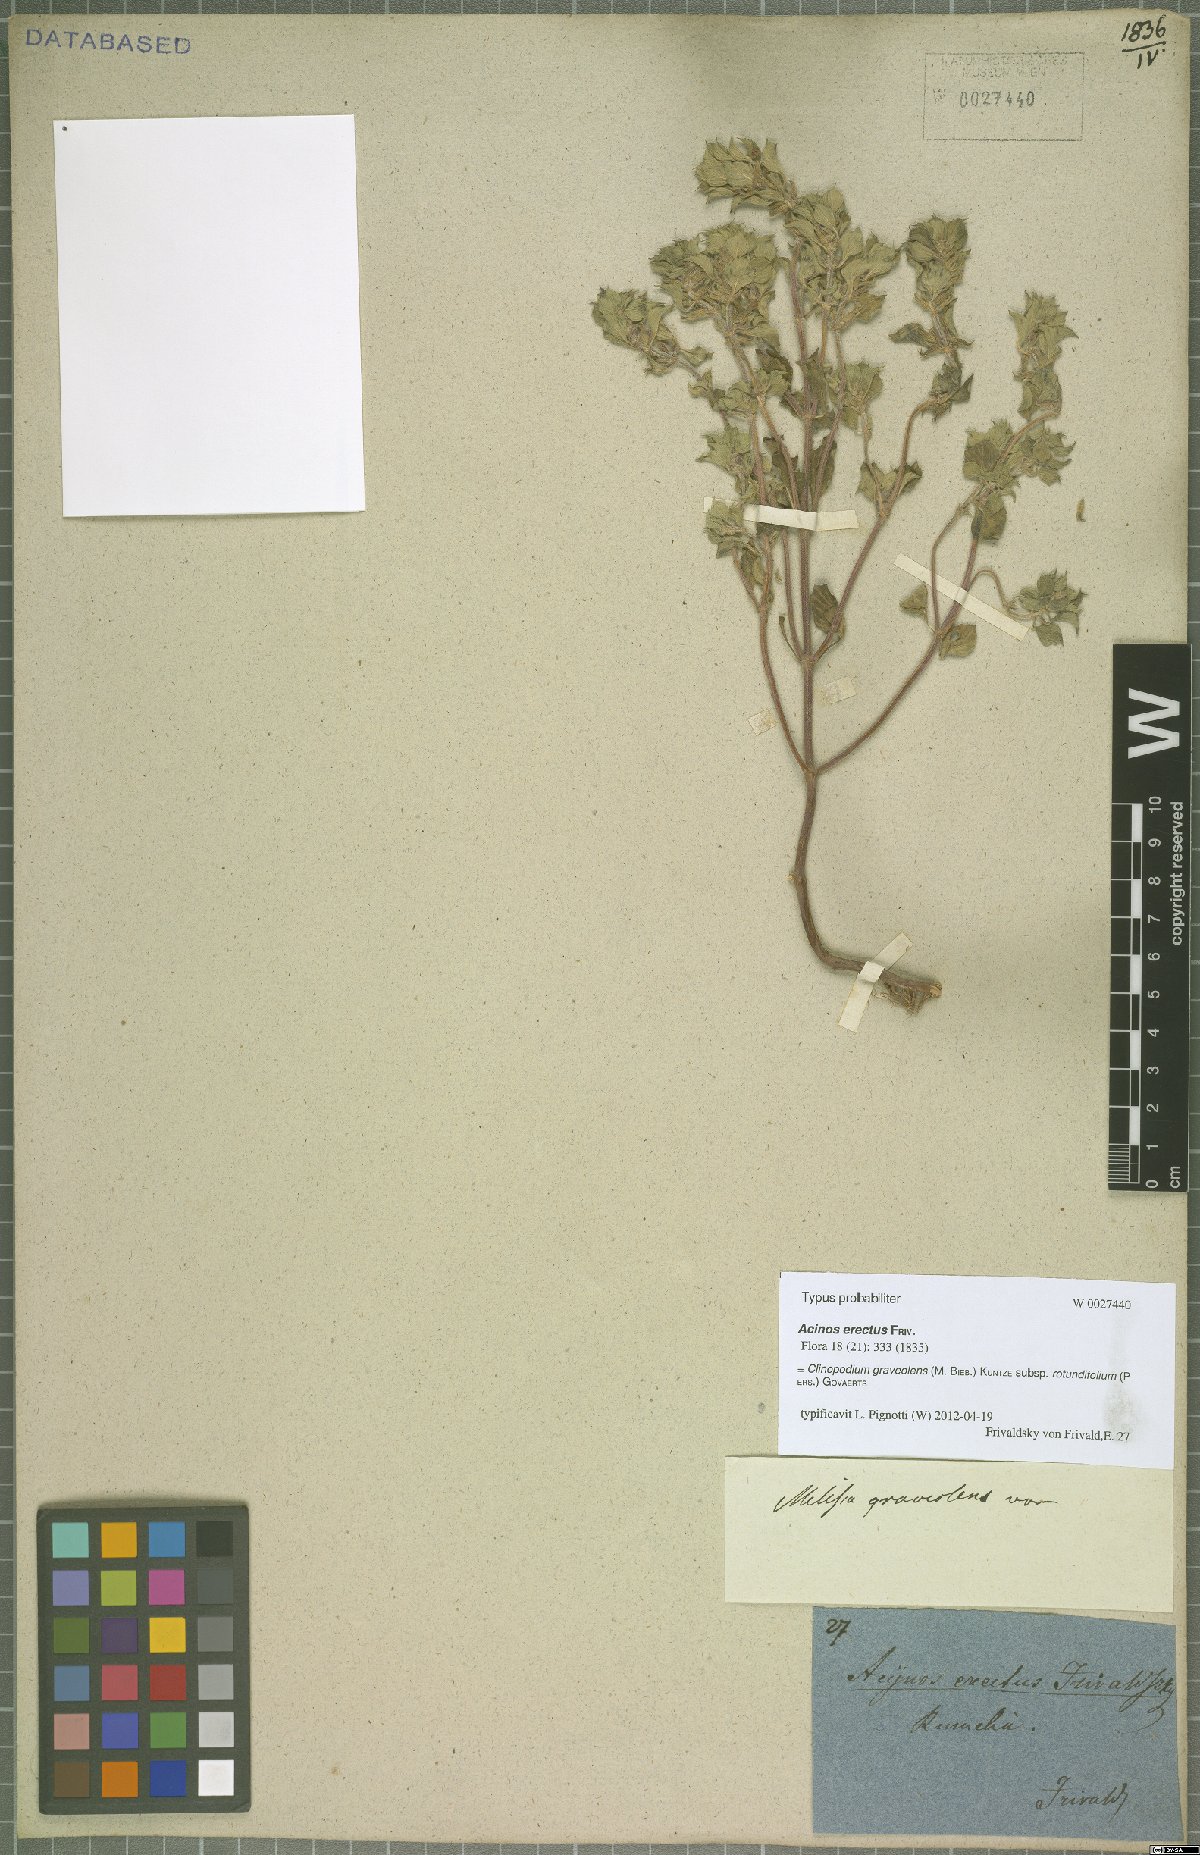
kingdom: Plantae
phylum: Tracheophyta
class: Magnoliopsida
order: Lamiales
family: Lamiaceae
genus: Clinopodium
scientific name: Clinopodium graveolens
